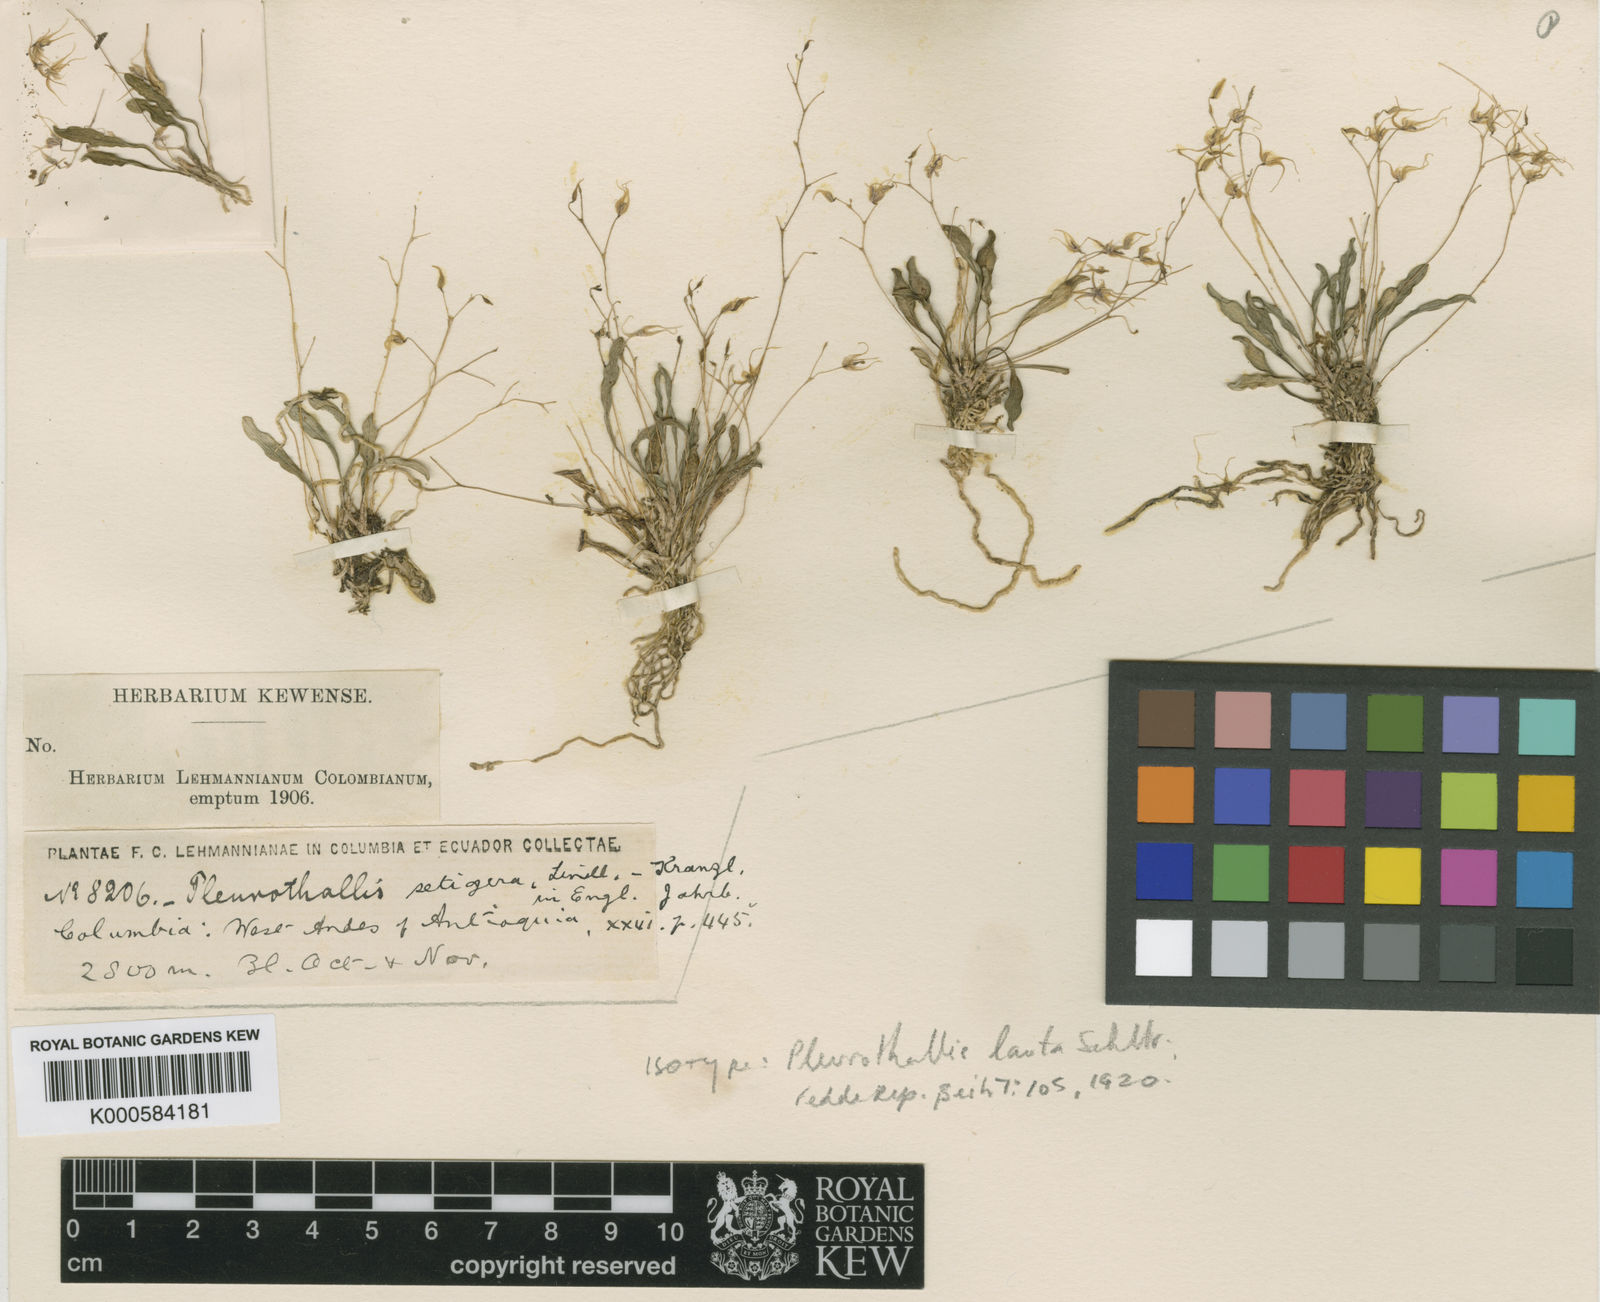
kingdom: Plantae
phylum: Tracheophyta
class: Liliopsida
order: Asparagales
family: Orchidaceae
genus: Muscarella
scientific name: Muscarella zephyrina
